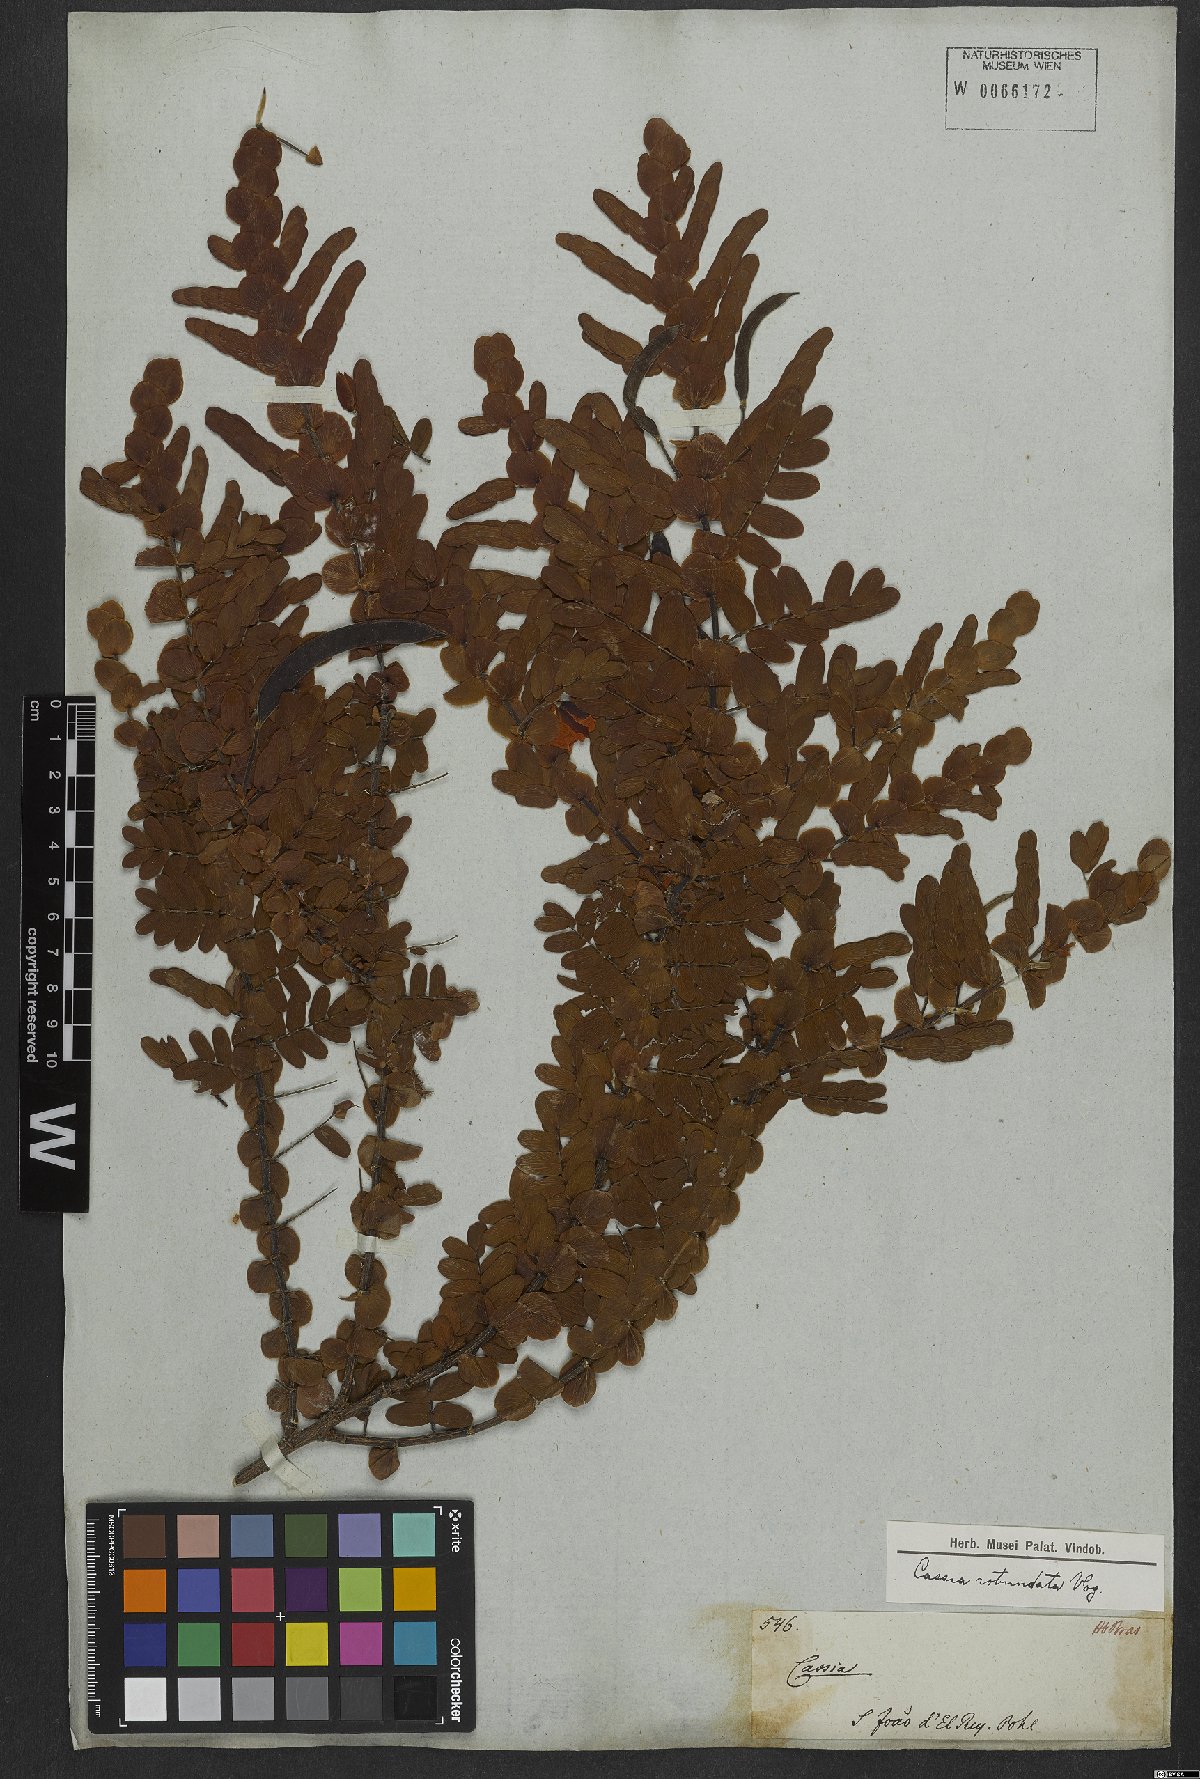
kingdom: Plantae
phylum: Tracheophyta
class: Magnoliopsida
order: Fabales
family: Fabaceae
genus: Chamaecrista
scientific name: Chamaecrista rotundata
